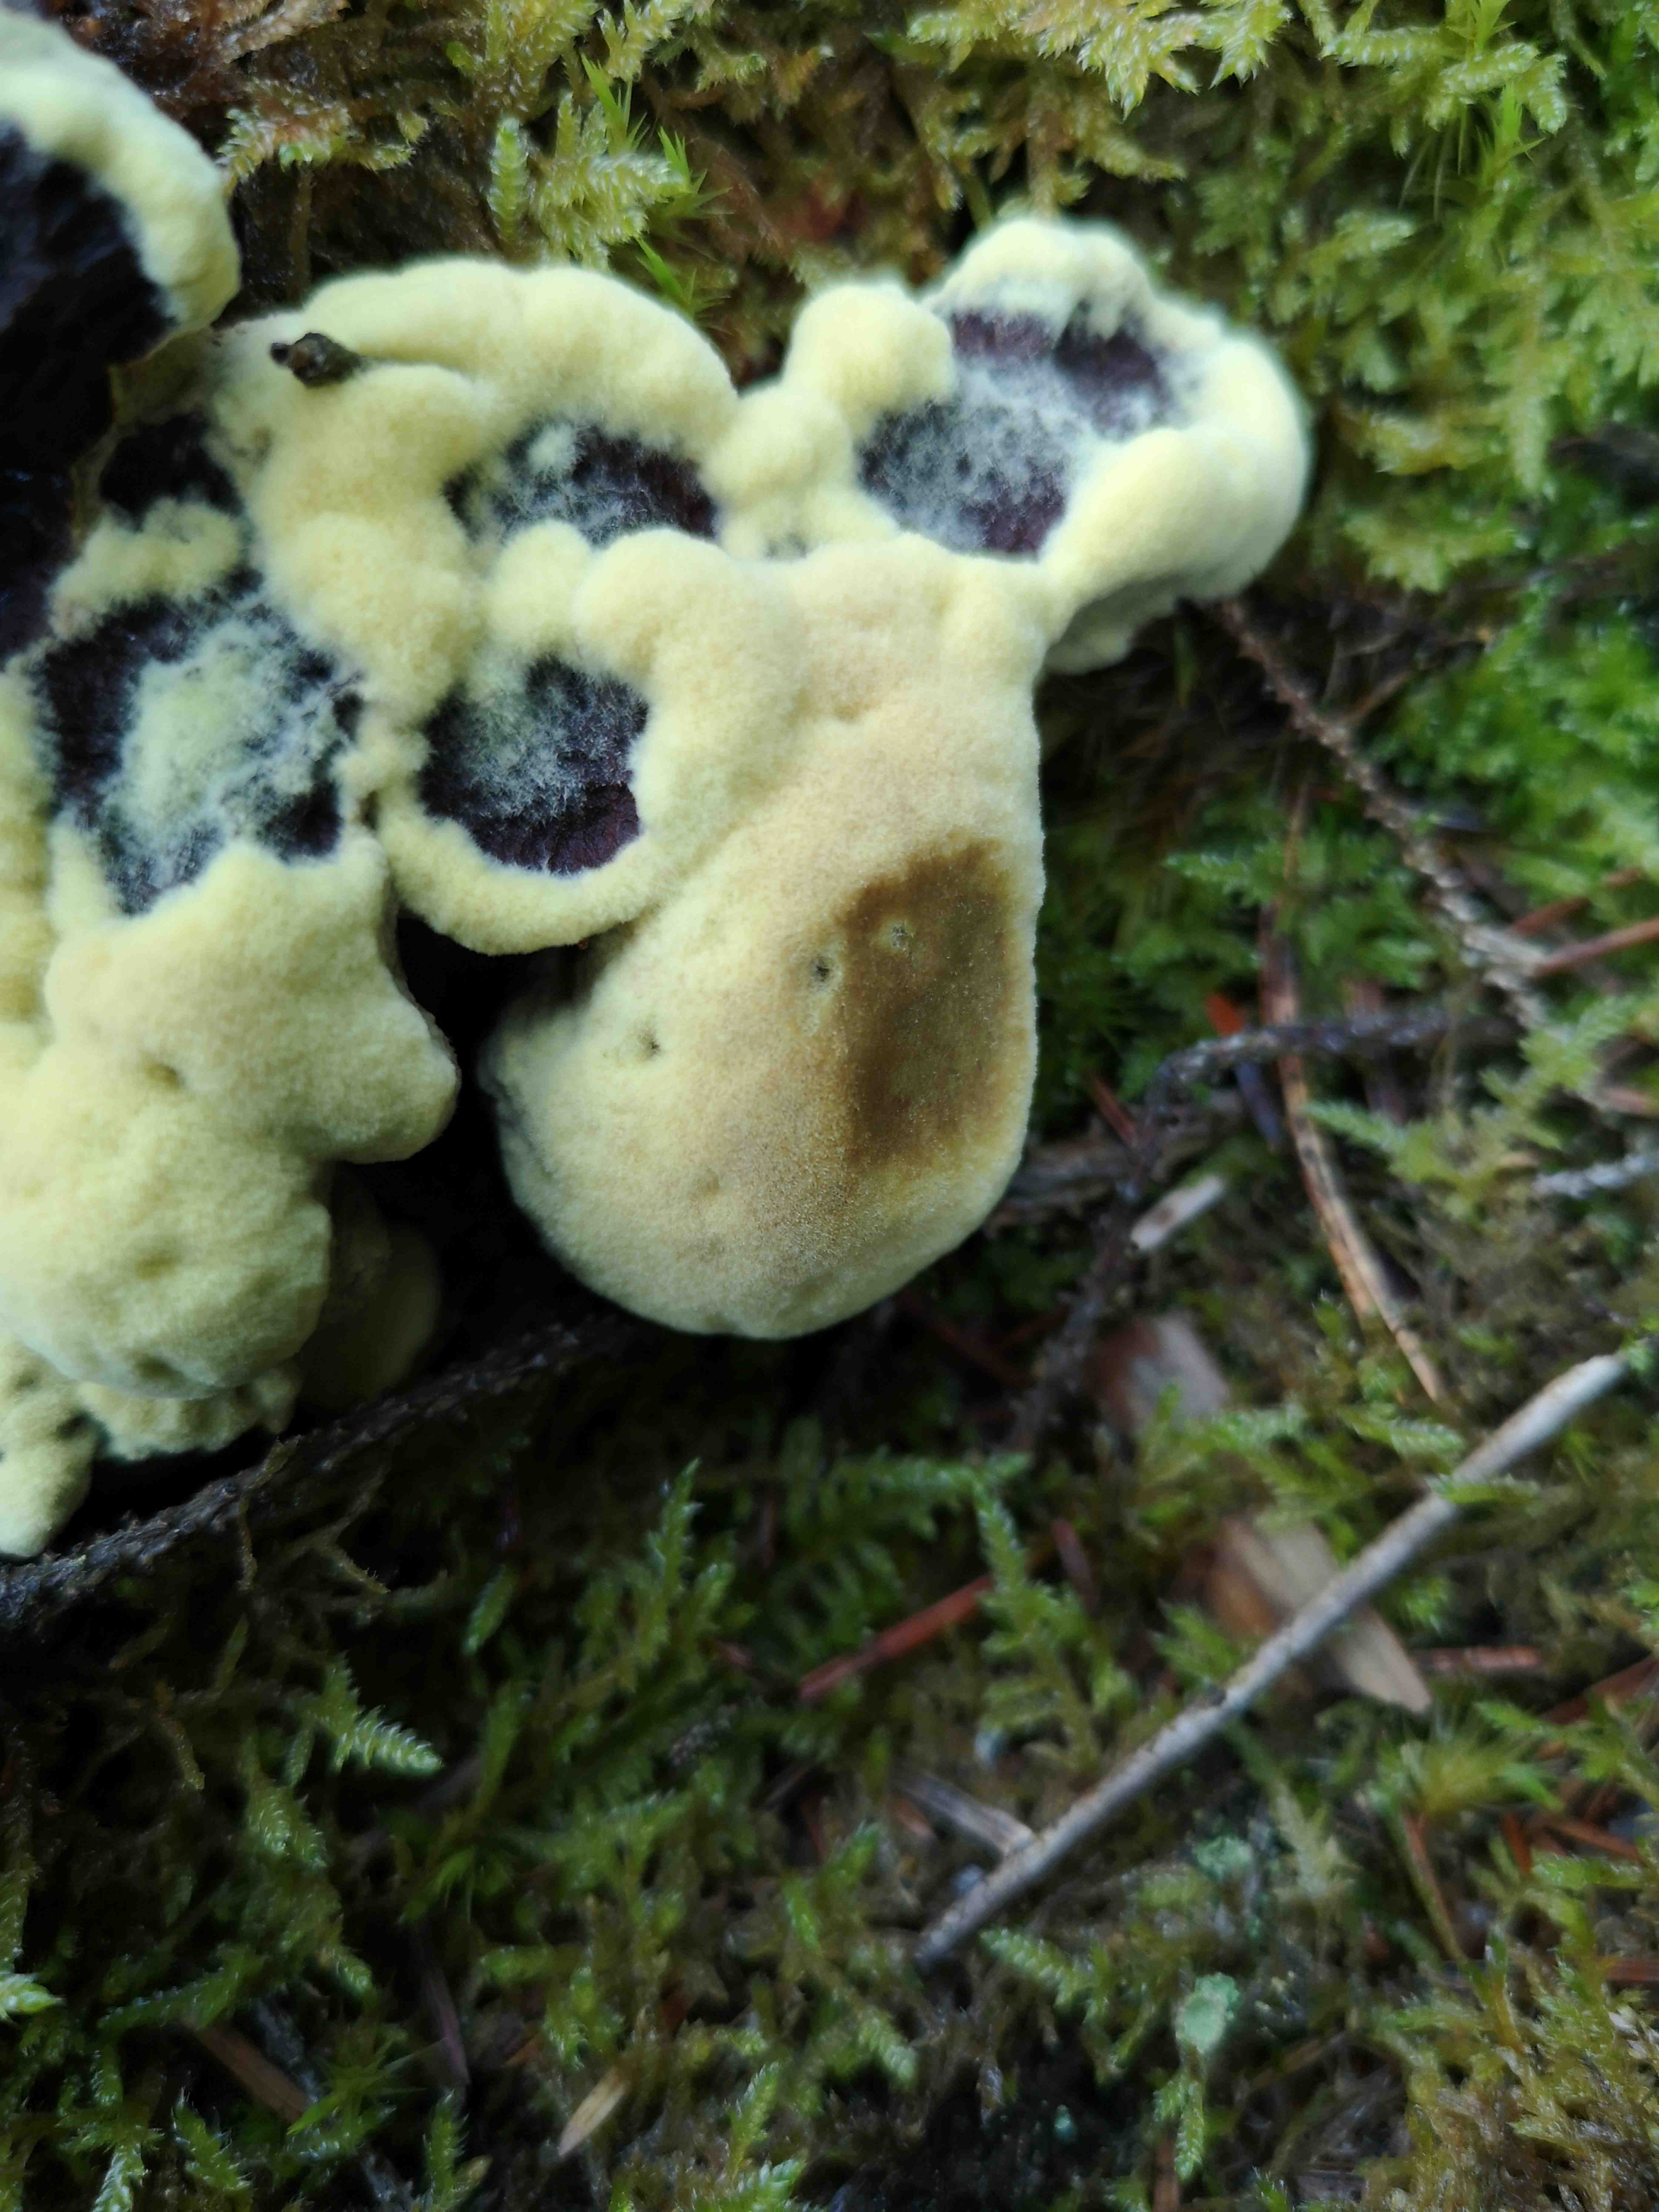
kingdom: Fungi
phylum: Basidiomycota
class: Agaricomycetes
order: Polyporales
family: Laetiporaceae
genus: Phaeolus
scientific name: Phaeolus schweinitzii
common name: brunporesvamp
